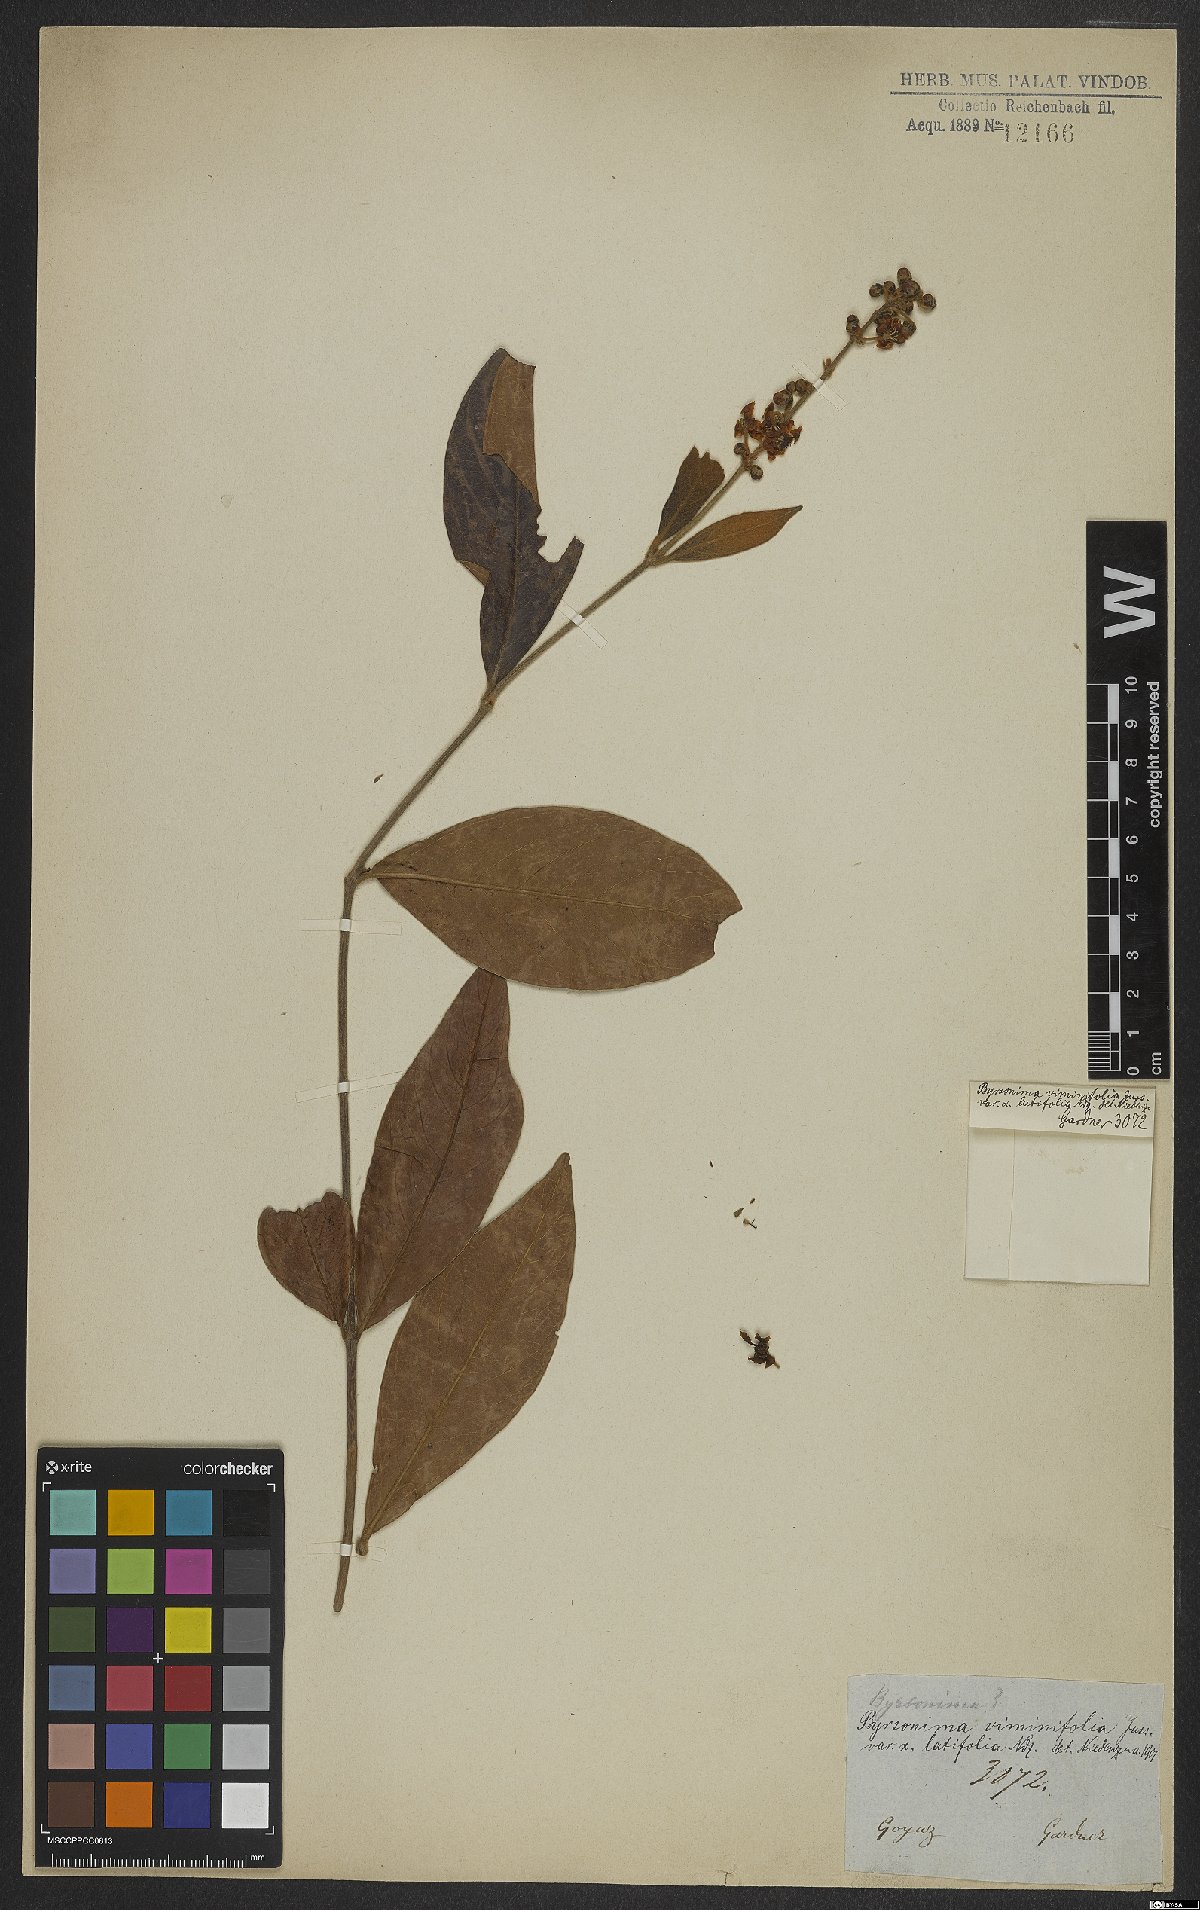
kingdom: Plantae
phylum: Tracheophyta
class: Magnoliopsida
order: Malpighiales
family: Malpighiaceae
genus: Byrsonima
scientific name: Byrsonima viminifolia
